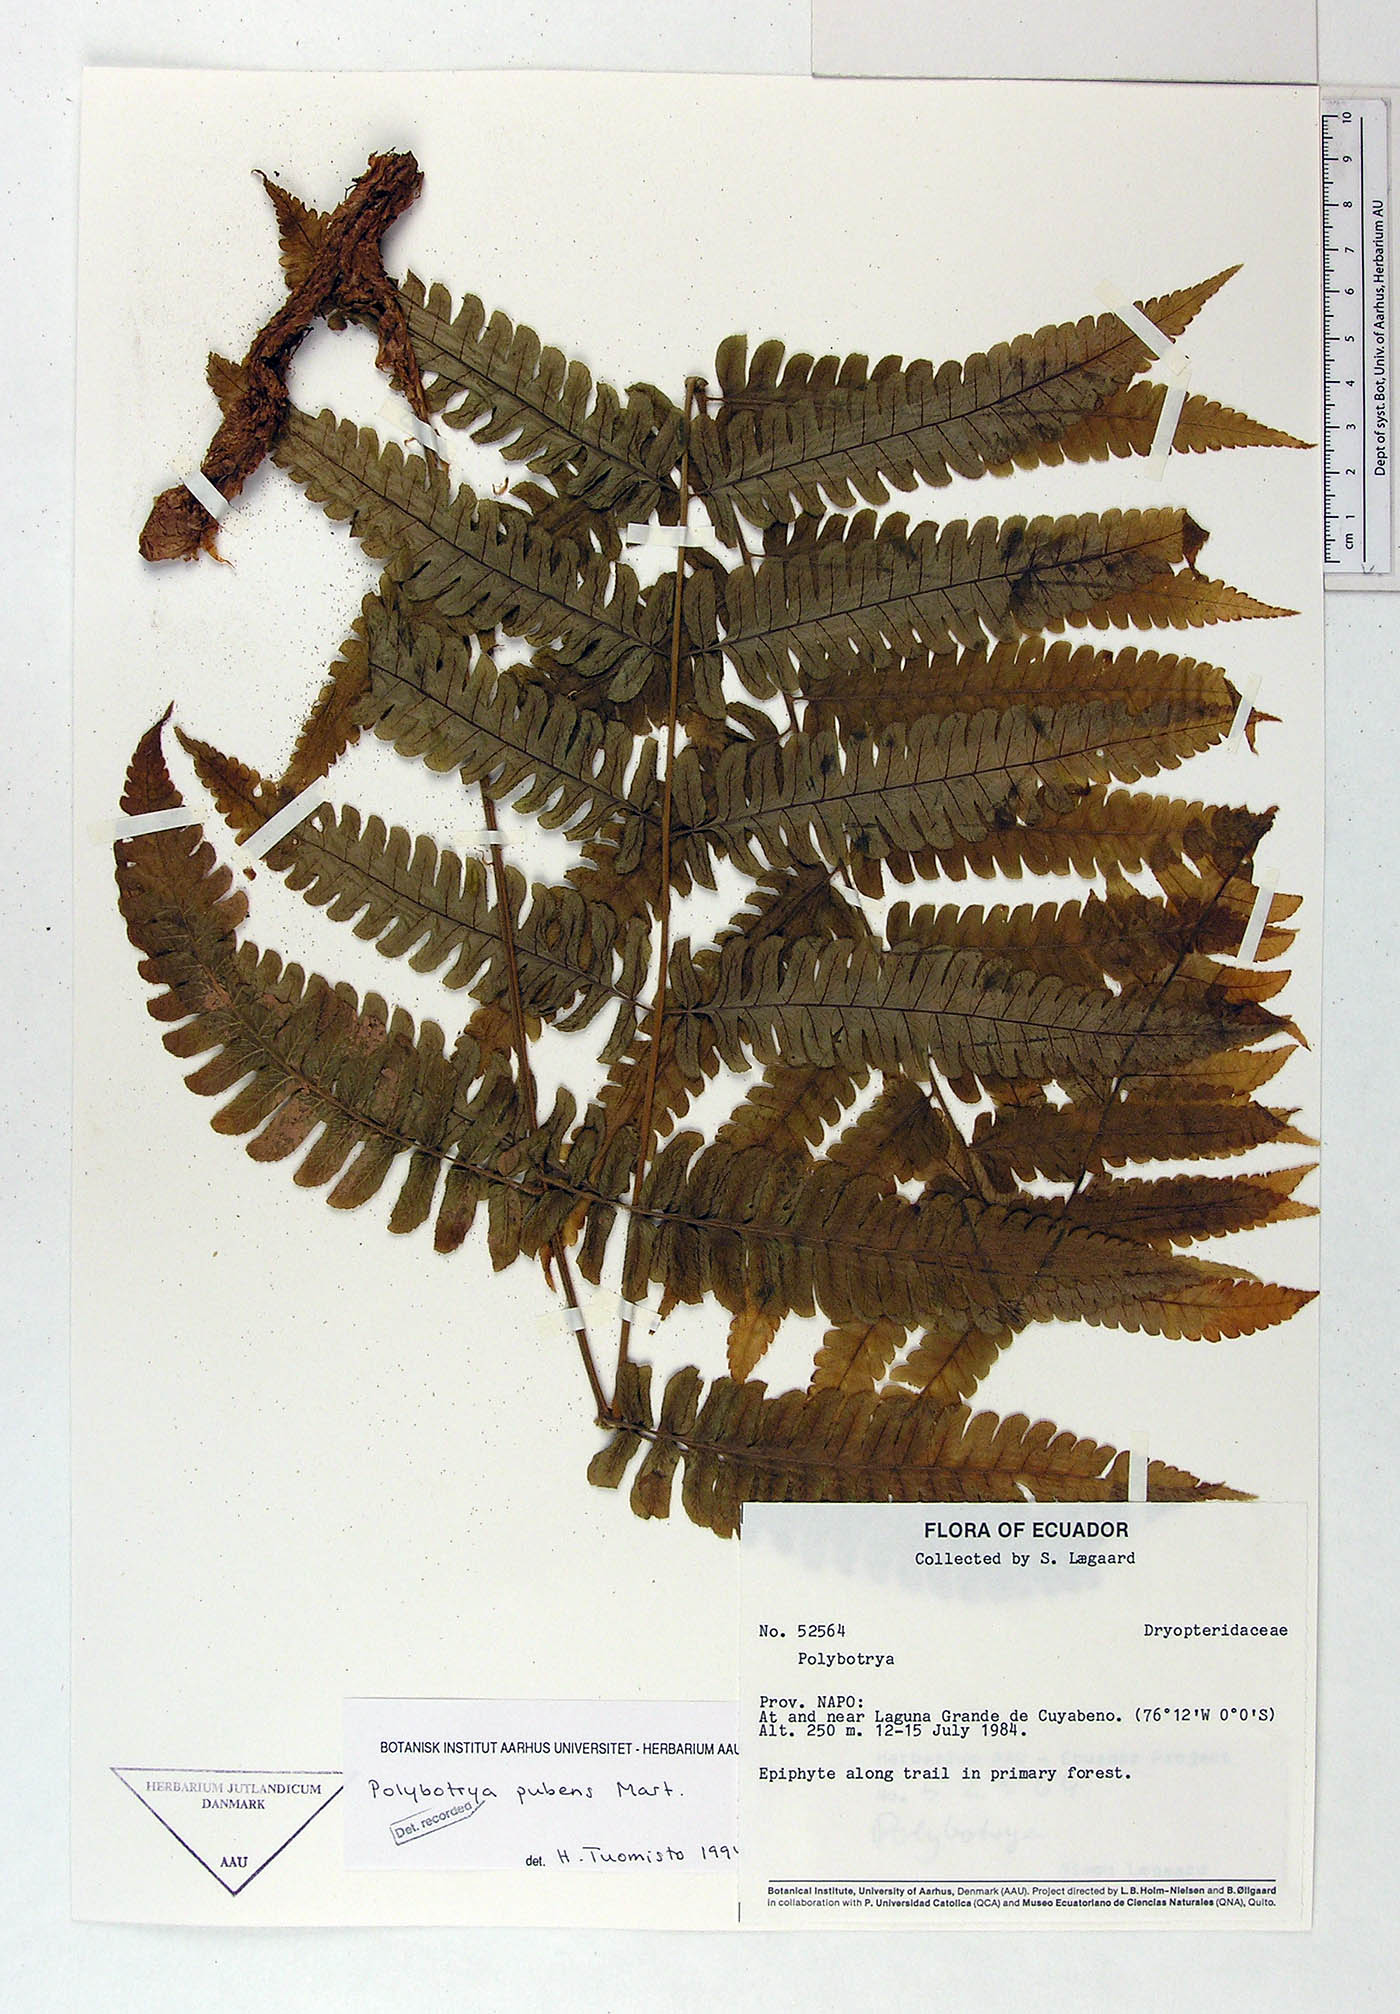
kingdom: Plantae
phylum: Tracheophyta
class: Polypodiopsida
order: Polypodiales
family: Dryopteridaceae
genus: Polybotrya
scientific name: Polybotrya pubens
